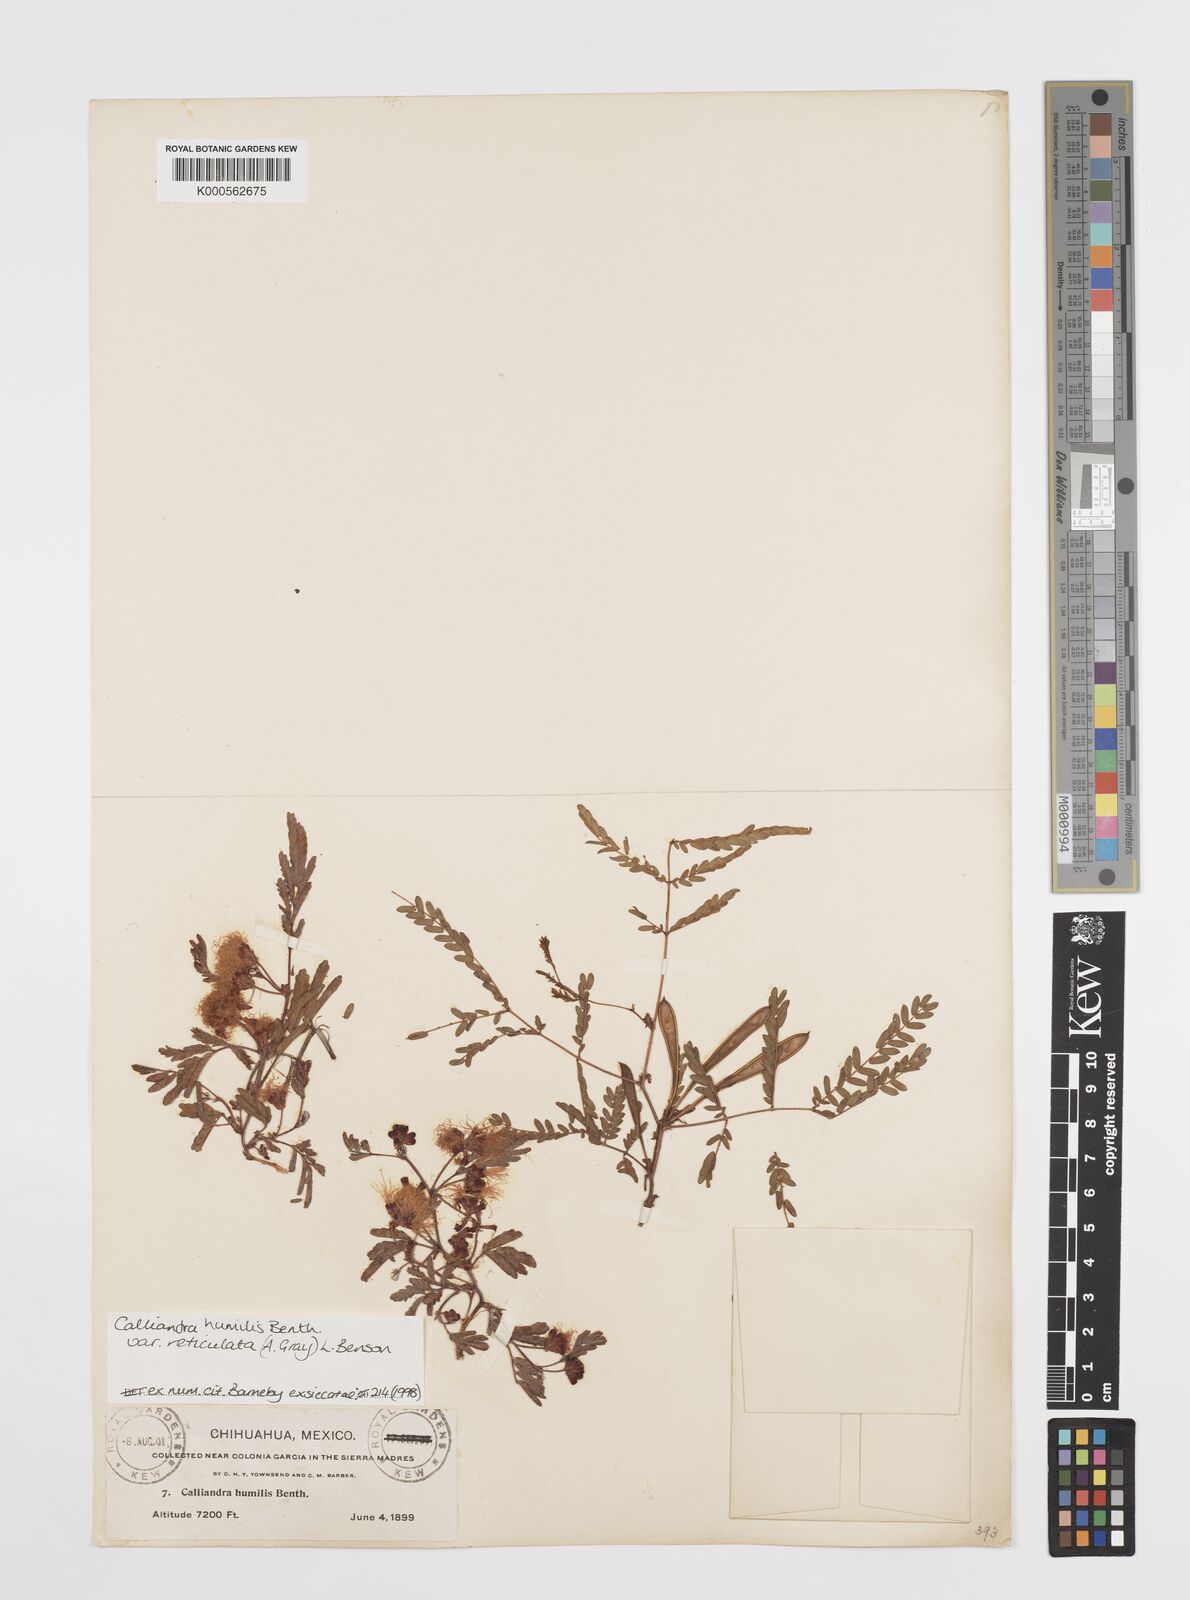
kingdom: Plantae
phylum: Tracheophyta
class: Magnoliopsida
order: Fabales
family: Fabaceae
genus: Calliandra
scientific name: Calliandra humilis
